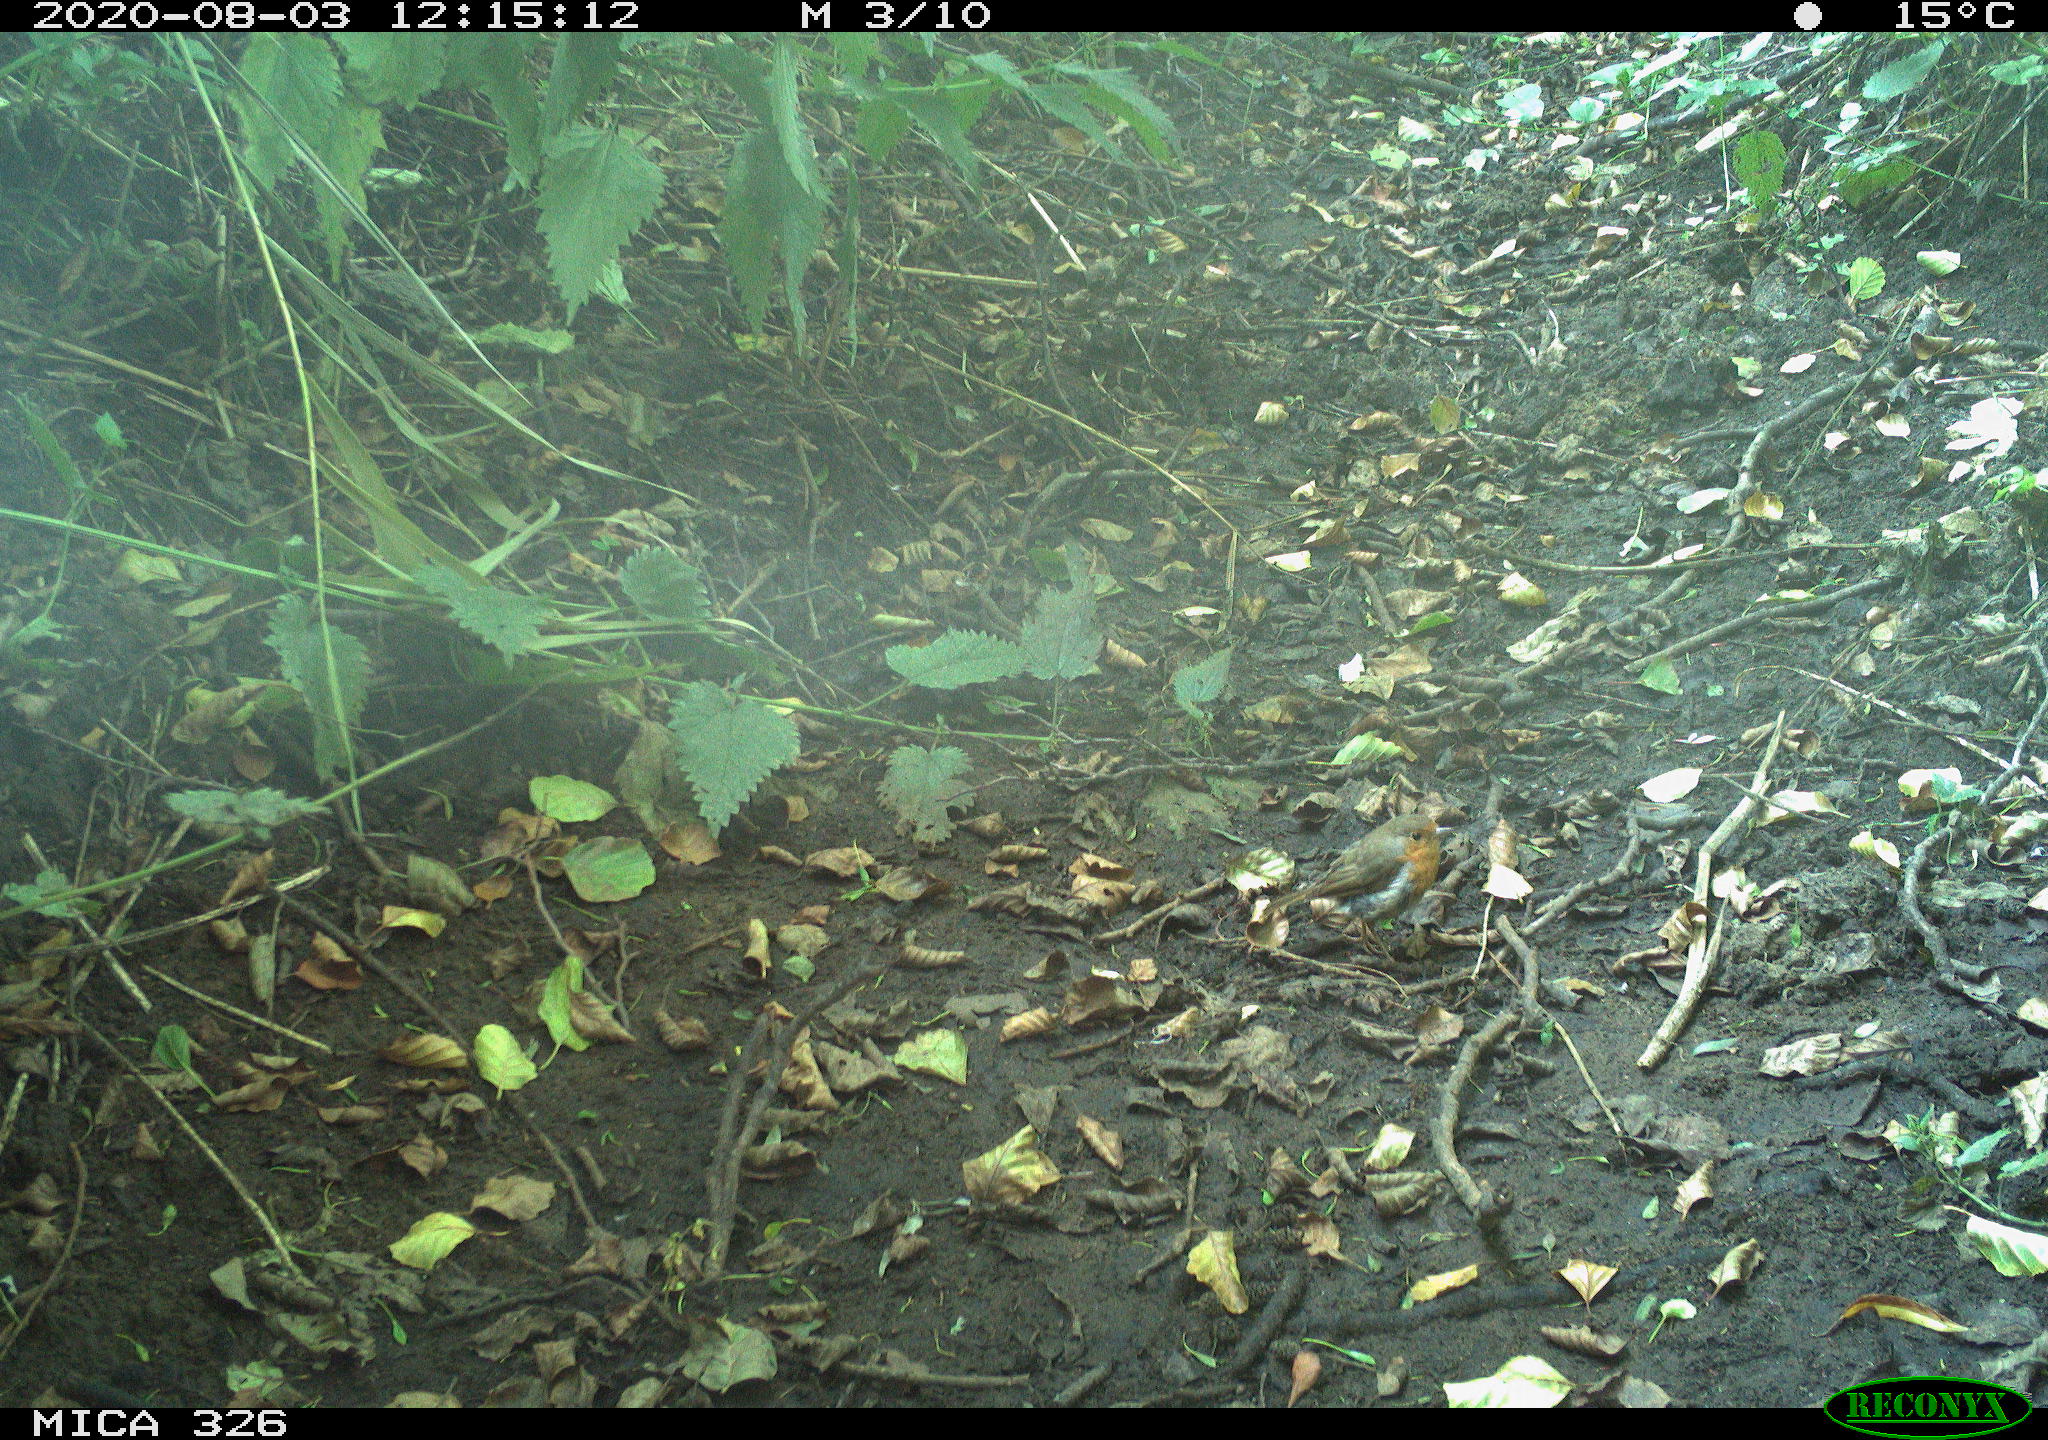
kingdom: Animalia
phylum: Chordata
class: Aves
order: Passeriformes
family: Muscicapidae
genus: Erithacus
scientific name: Erithacus rubecula
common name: European robin
